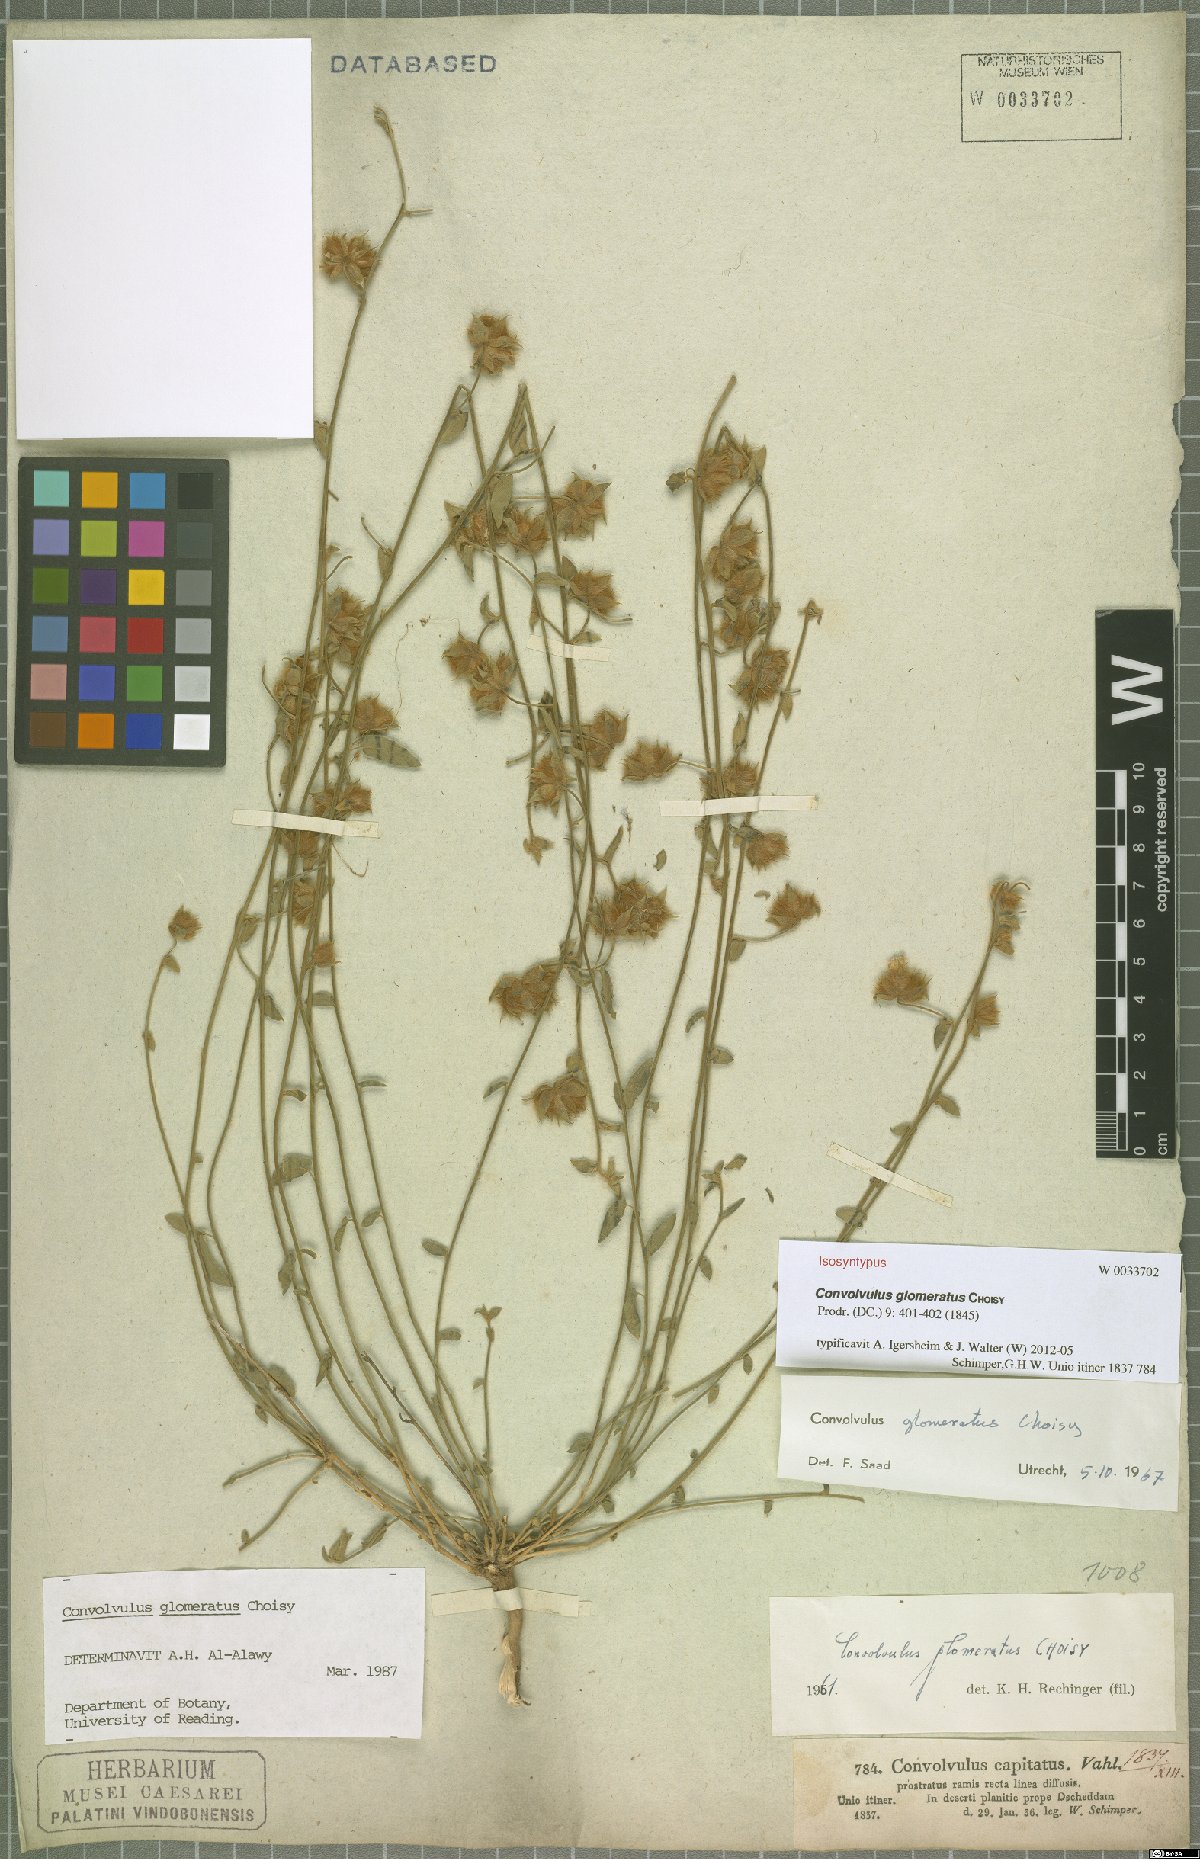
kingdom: Plantae
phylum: Tracheophyta
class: Magnoliopsida
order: Solanales
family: Convolvulaceae
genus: Convolvulus
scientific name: Convolvulus glomeratus
